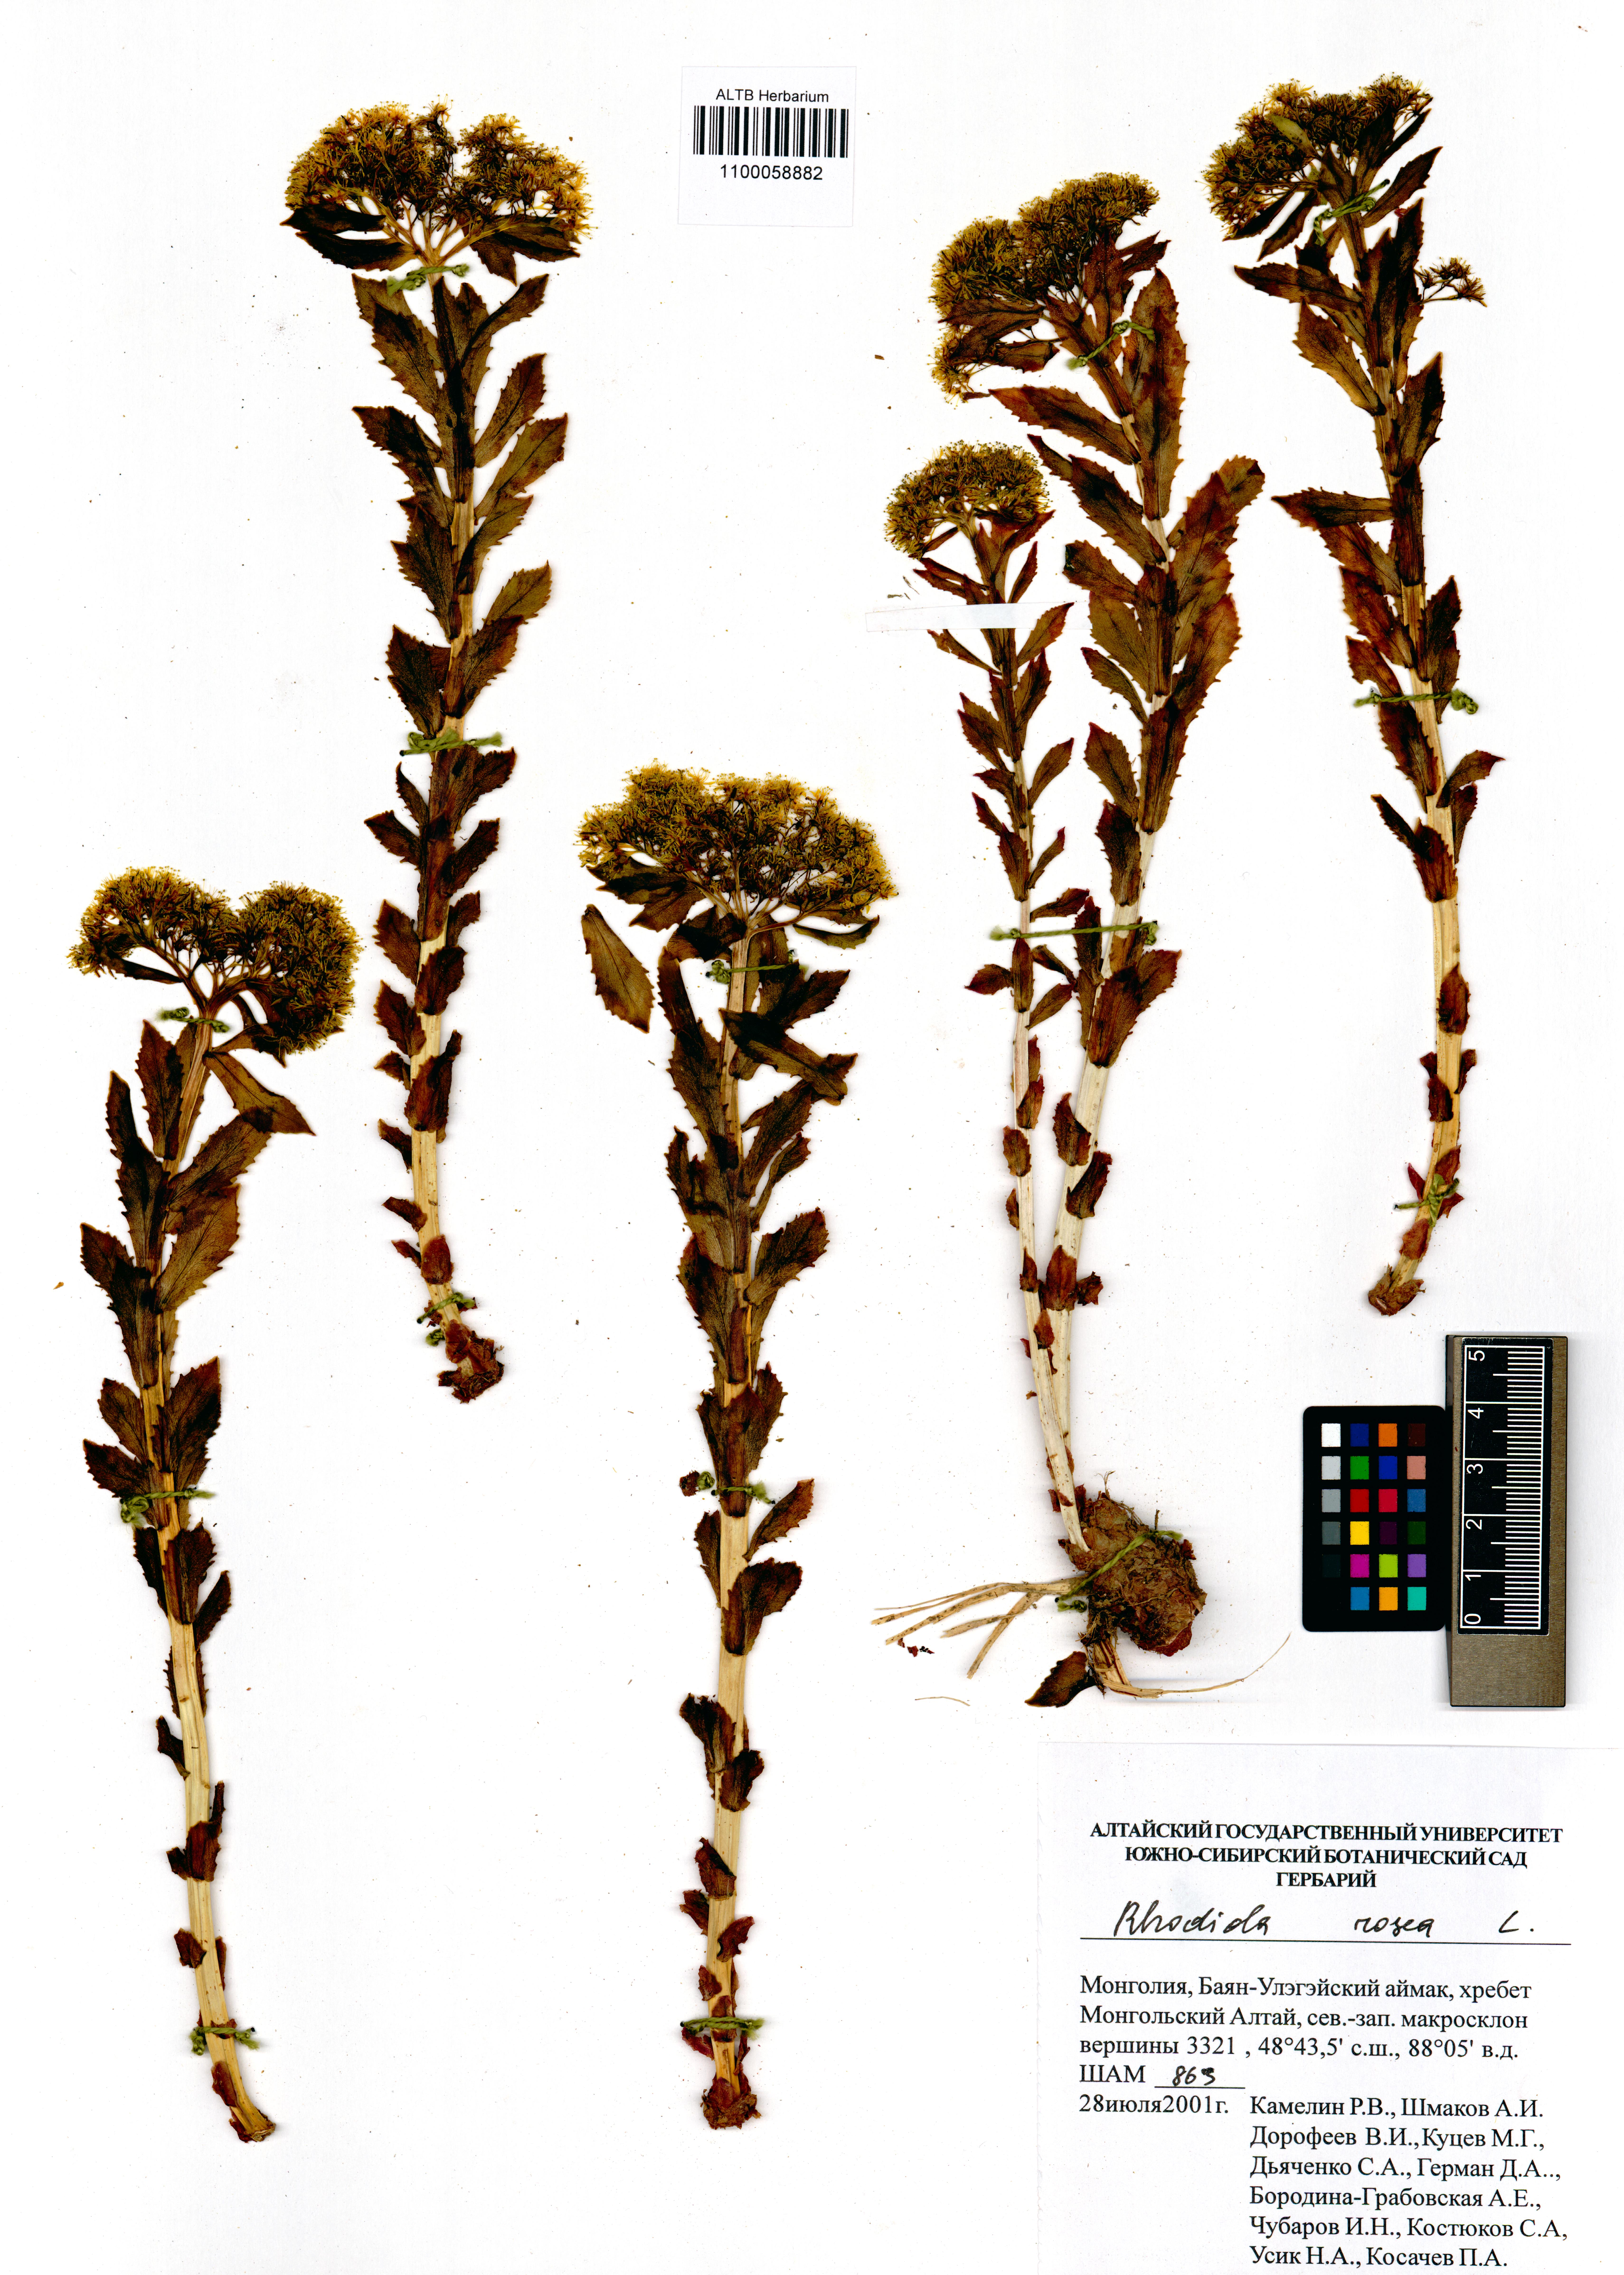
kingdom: Plantae
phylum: Tracheophyta
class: Magnoliopsida
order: Saxifragales
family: Crassulaceae
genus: Rhodiola
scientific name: Rhodiola rosea
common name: Roseroot
